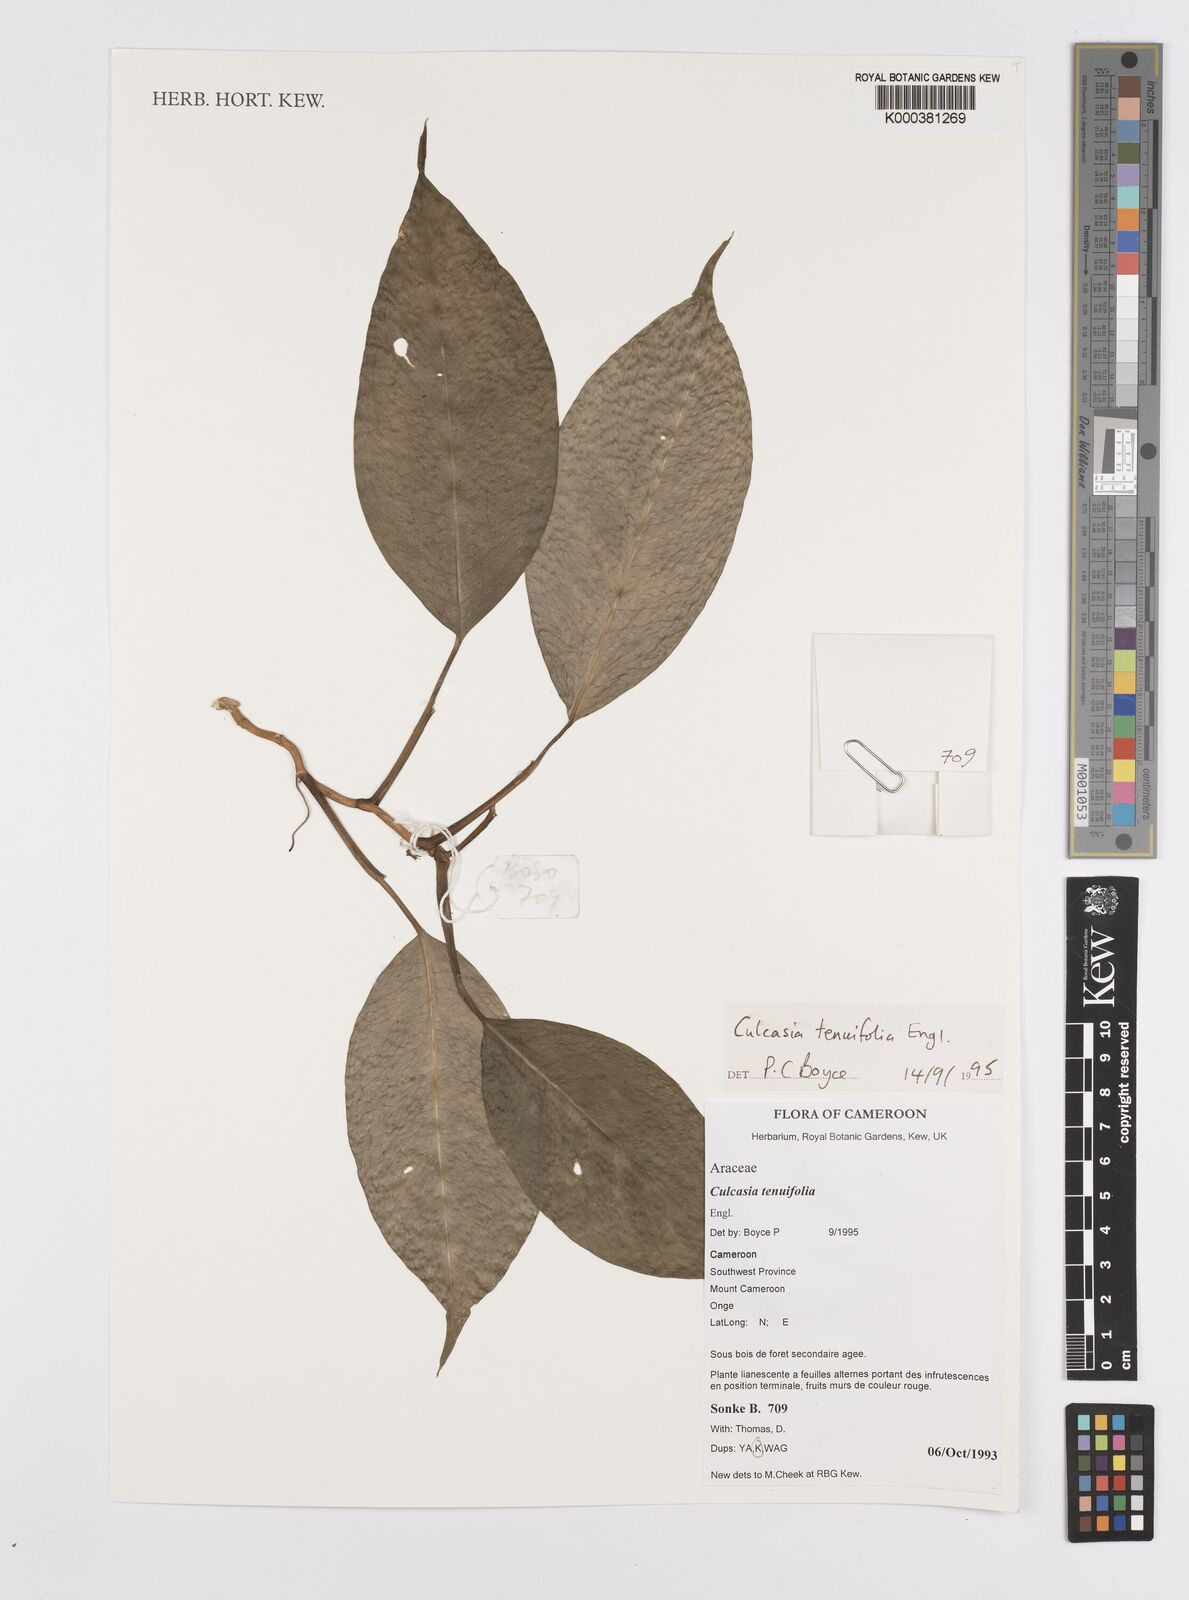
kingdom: Plantae
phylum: Tracheophyta
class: Liliopsida
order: Alismatales
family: Araceae
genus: Culcasia
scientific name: Culcasia tenuifolia
